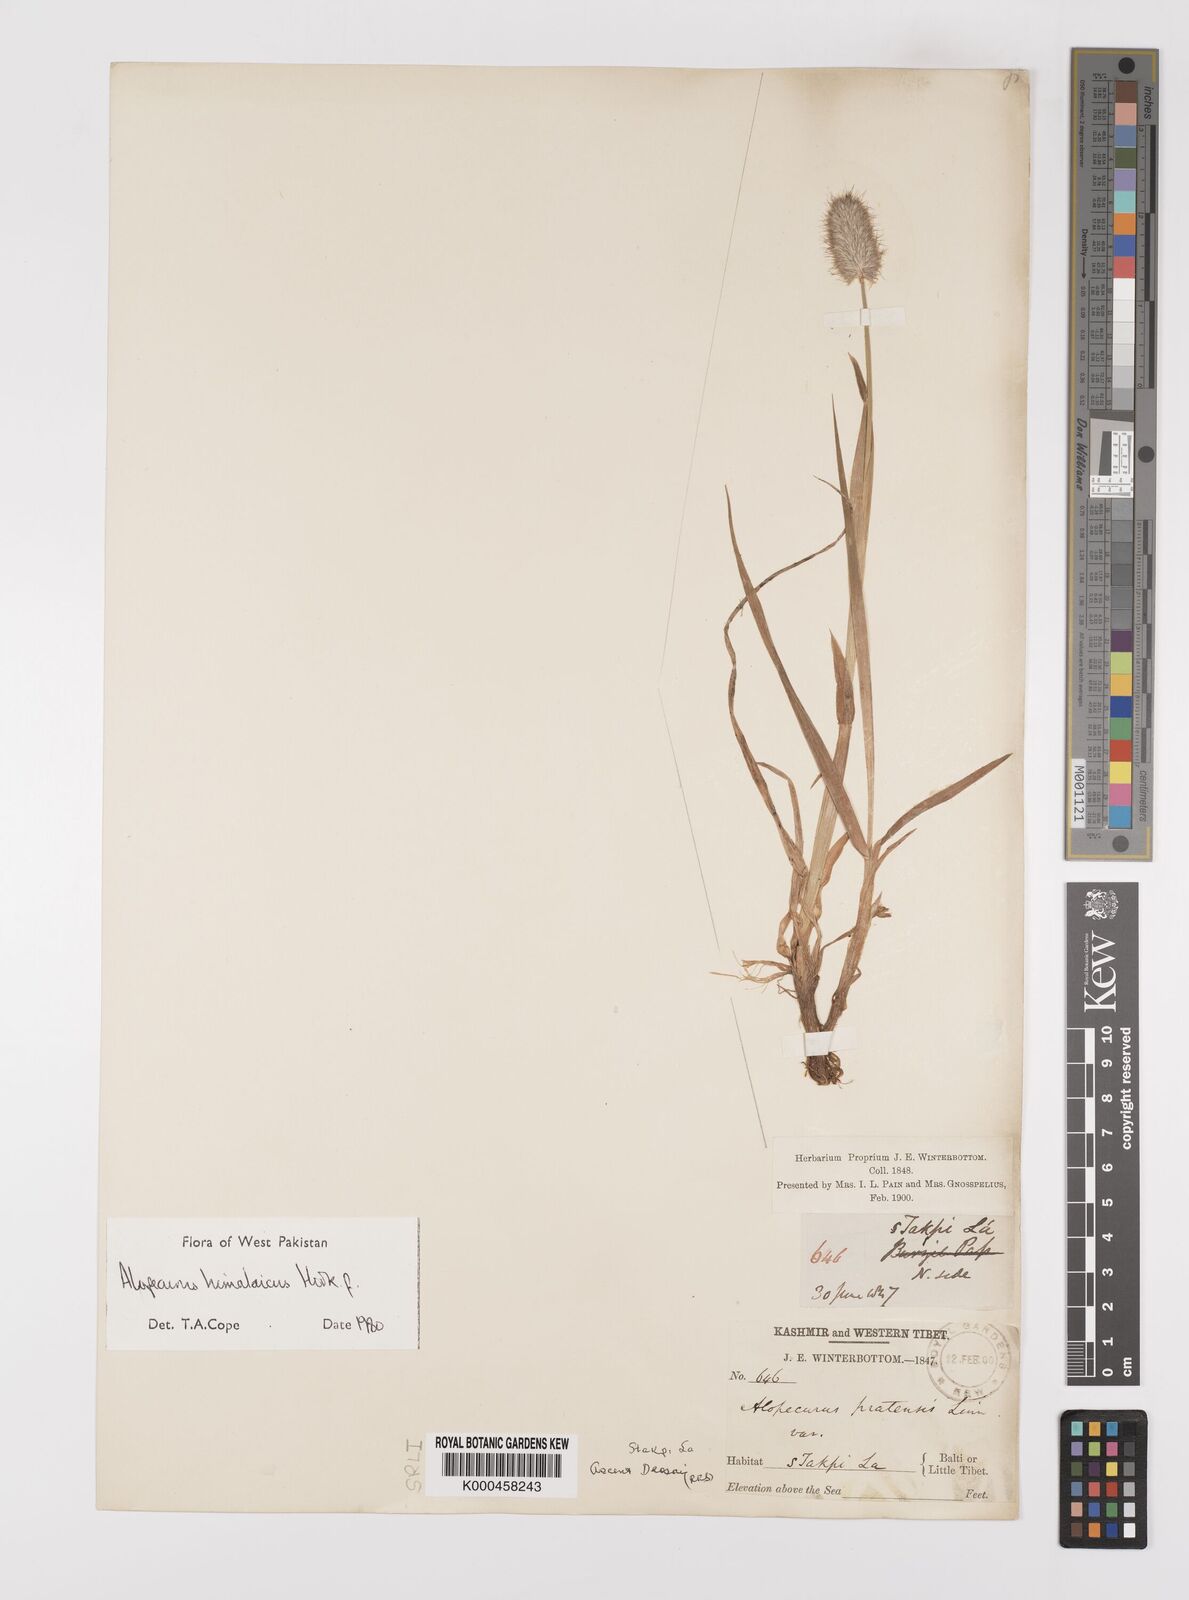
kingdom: Plantae
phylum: Tracheophyta
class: Liliopsida
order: Poales
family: Poaceae
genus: Alopecurus
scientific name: Alopecurus himalaicus
